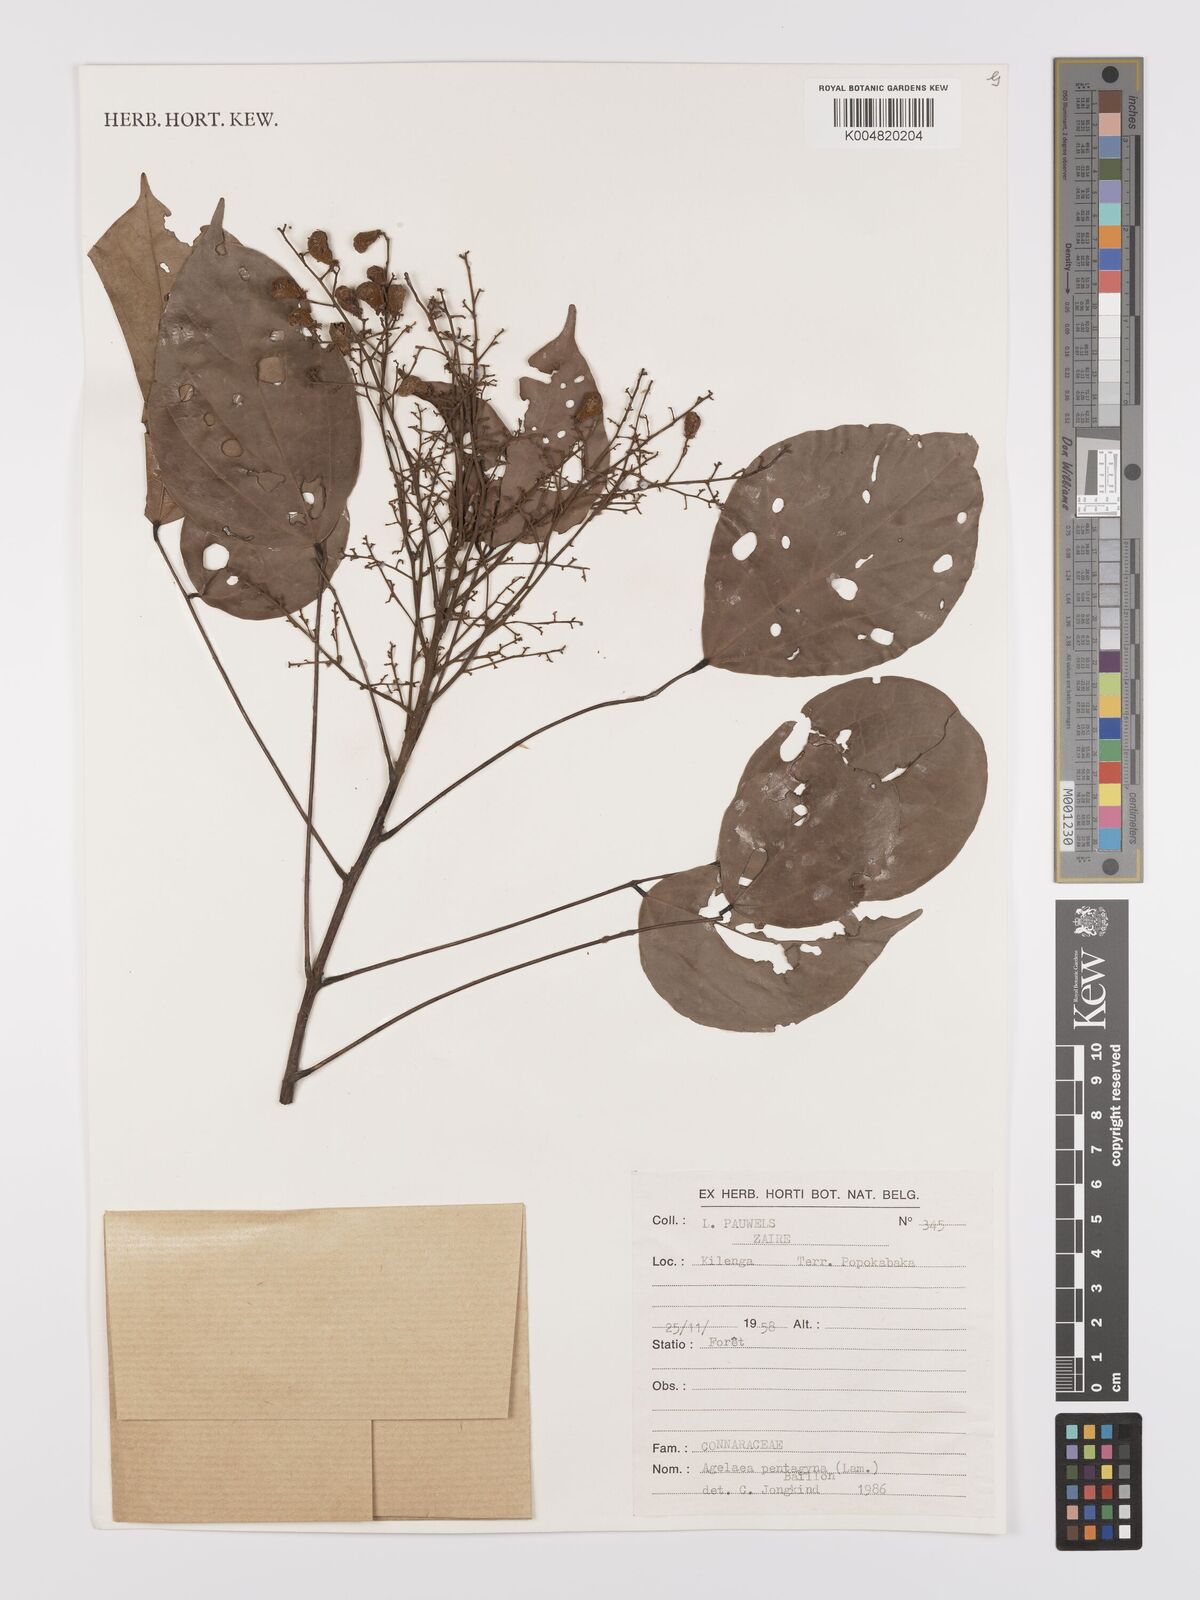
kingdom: Plantae
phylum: Tracheophyta
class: Magnoliopsida
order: Oxalidales
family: Connaraceae
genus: Agelaea
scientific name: Agelaea pentagyna
